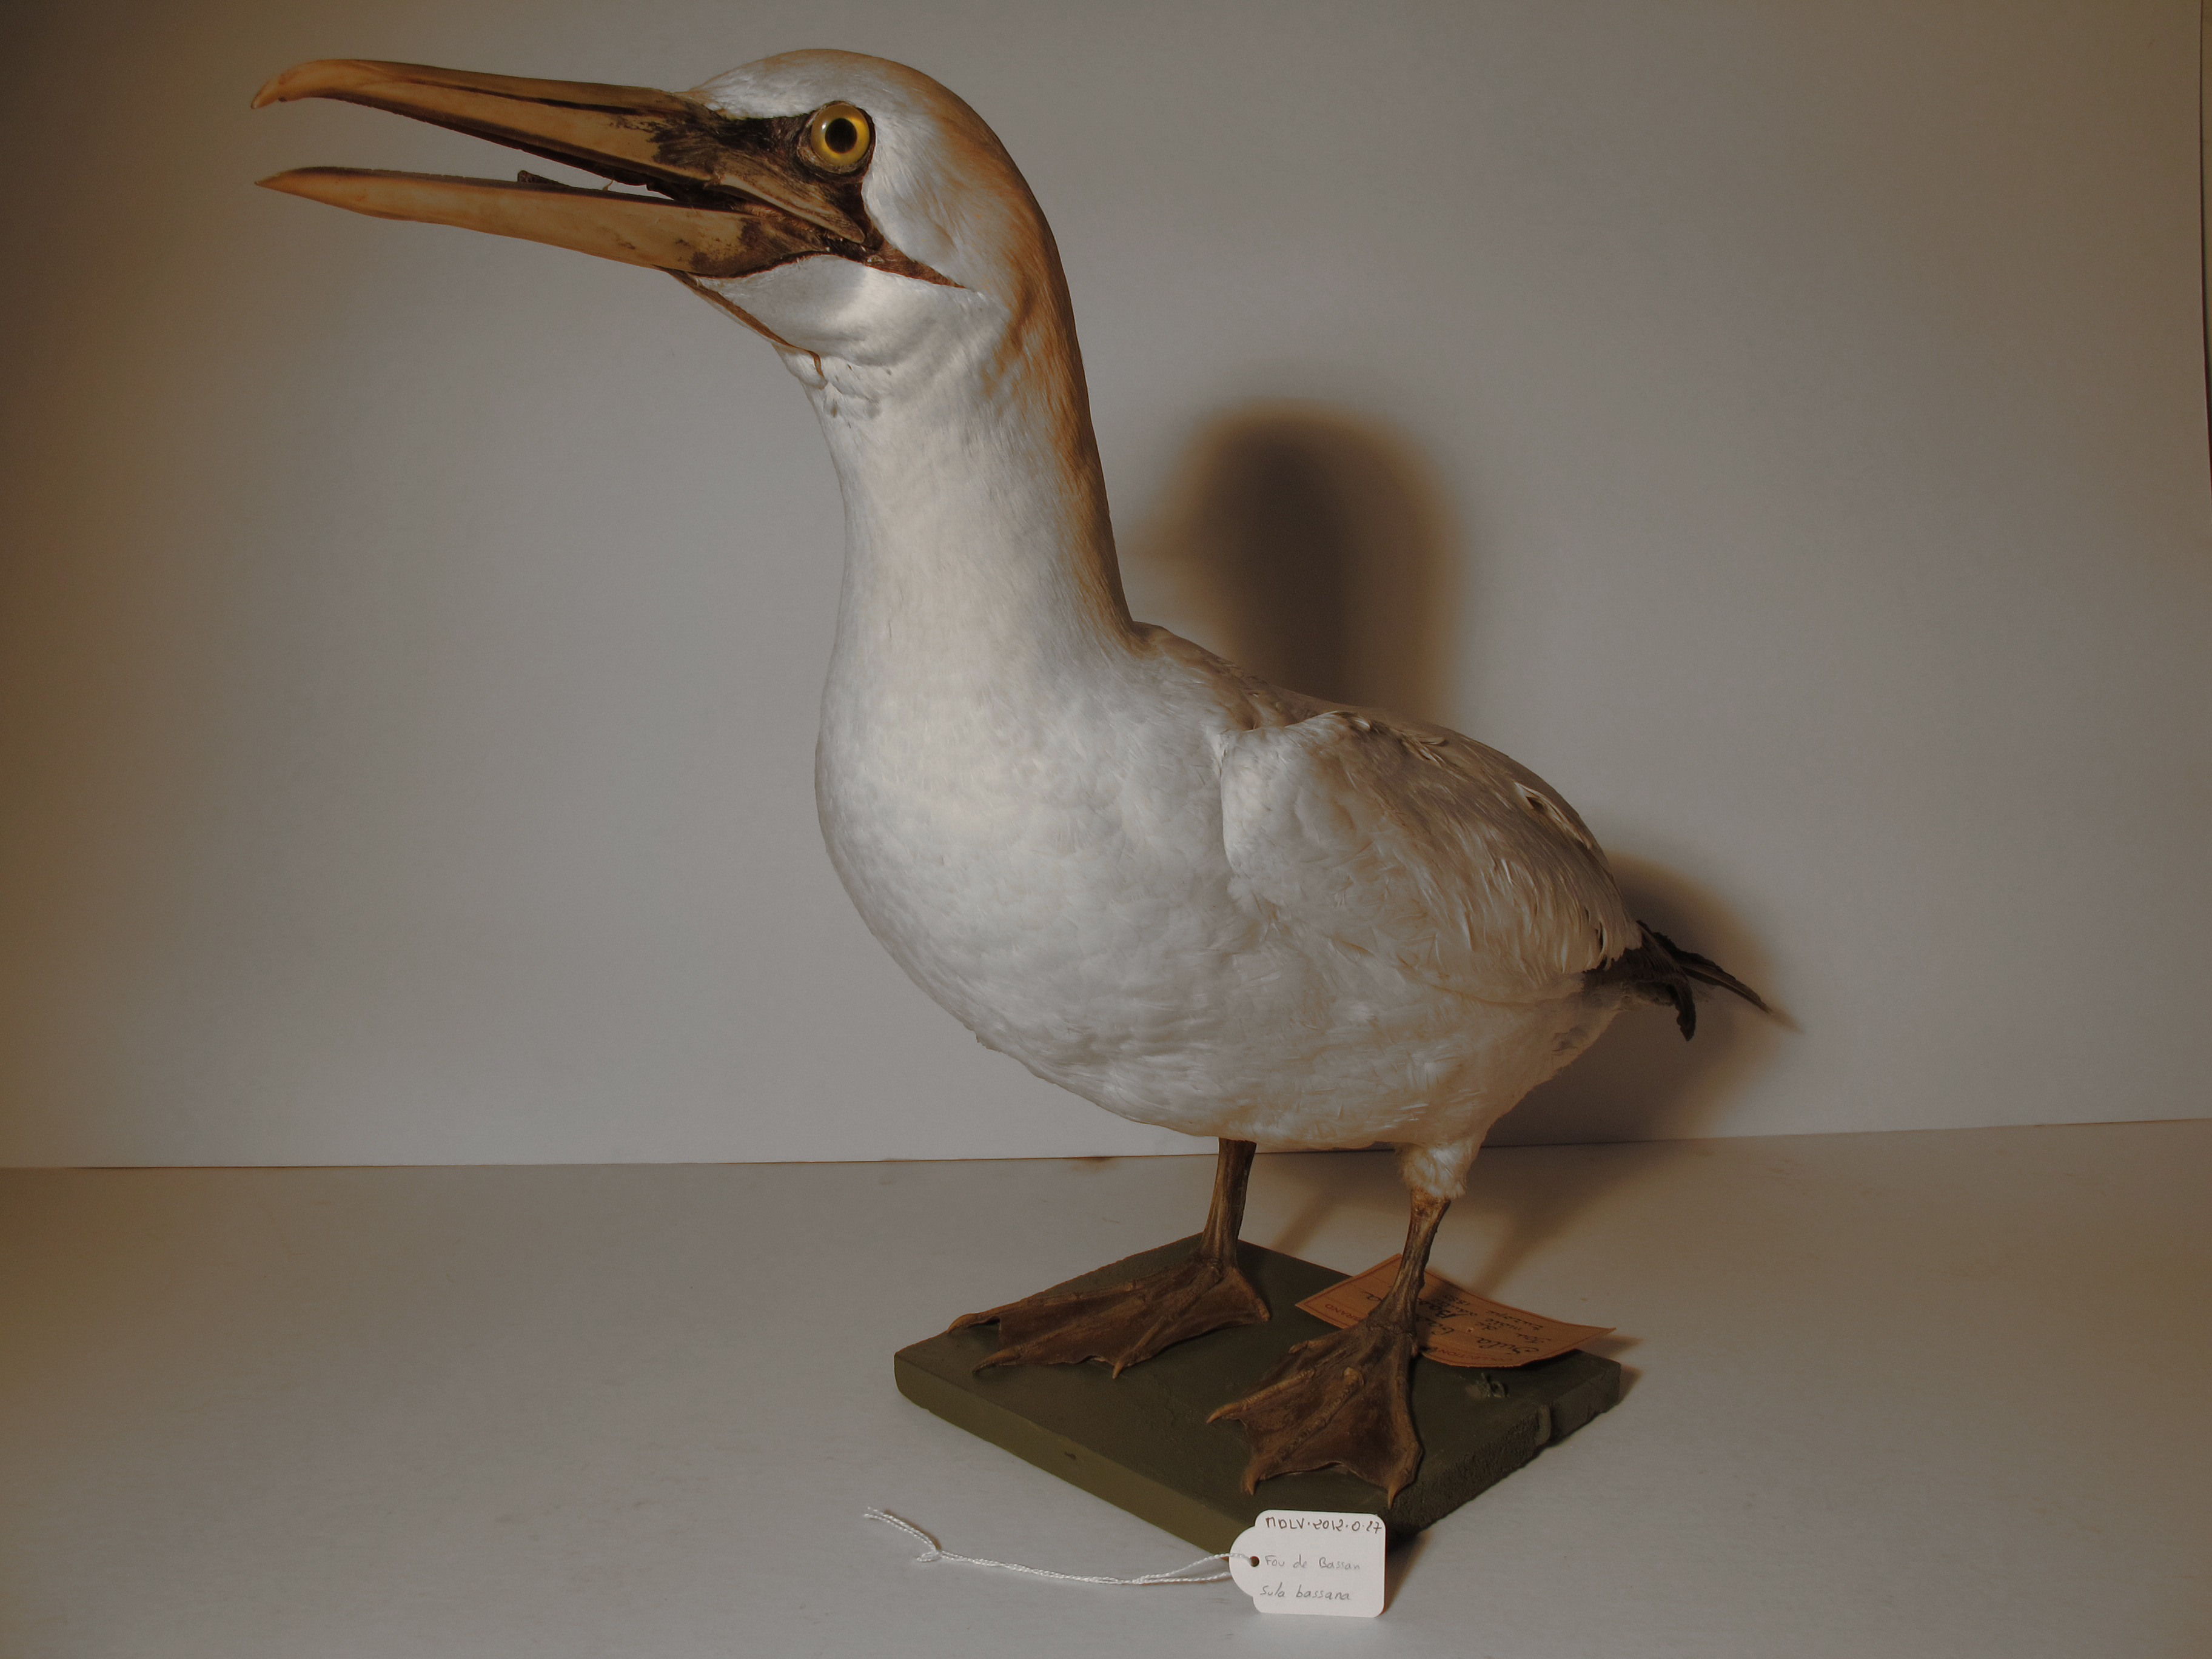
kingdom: Animalia
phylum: Chordata
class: Aves
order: Suliformes
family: Sulidae
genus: Morus
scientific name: Morus bassanus
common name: Northern Gannet
